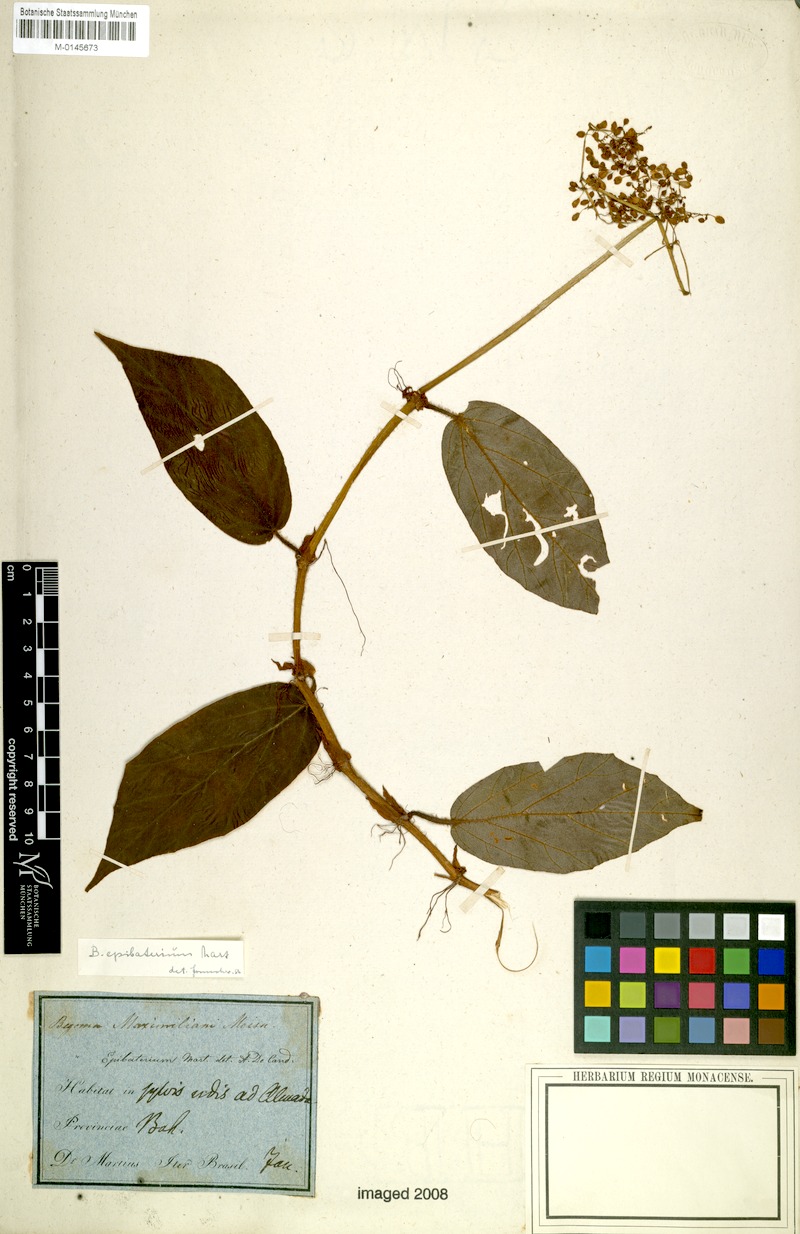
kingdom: Plantae
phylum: Tracheophyta
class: Magnoliopsida
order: Cucurbitales
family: Begoniaceae
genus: Begonia
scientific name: Begonia epibaterium
